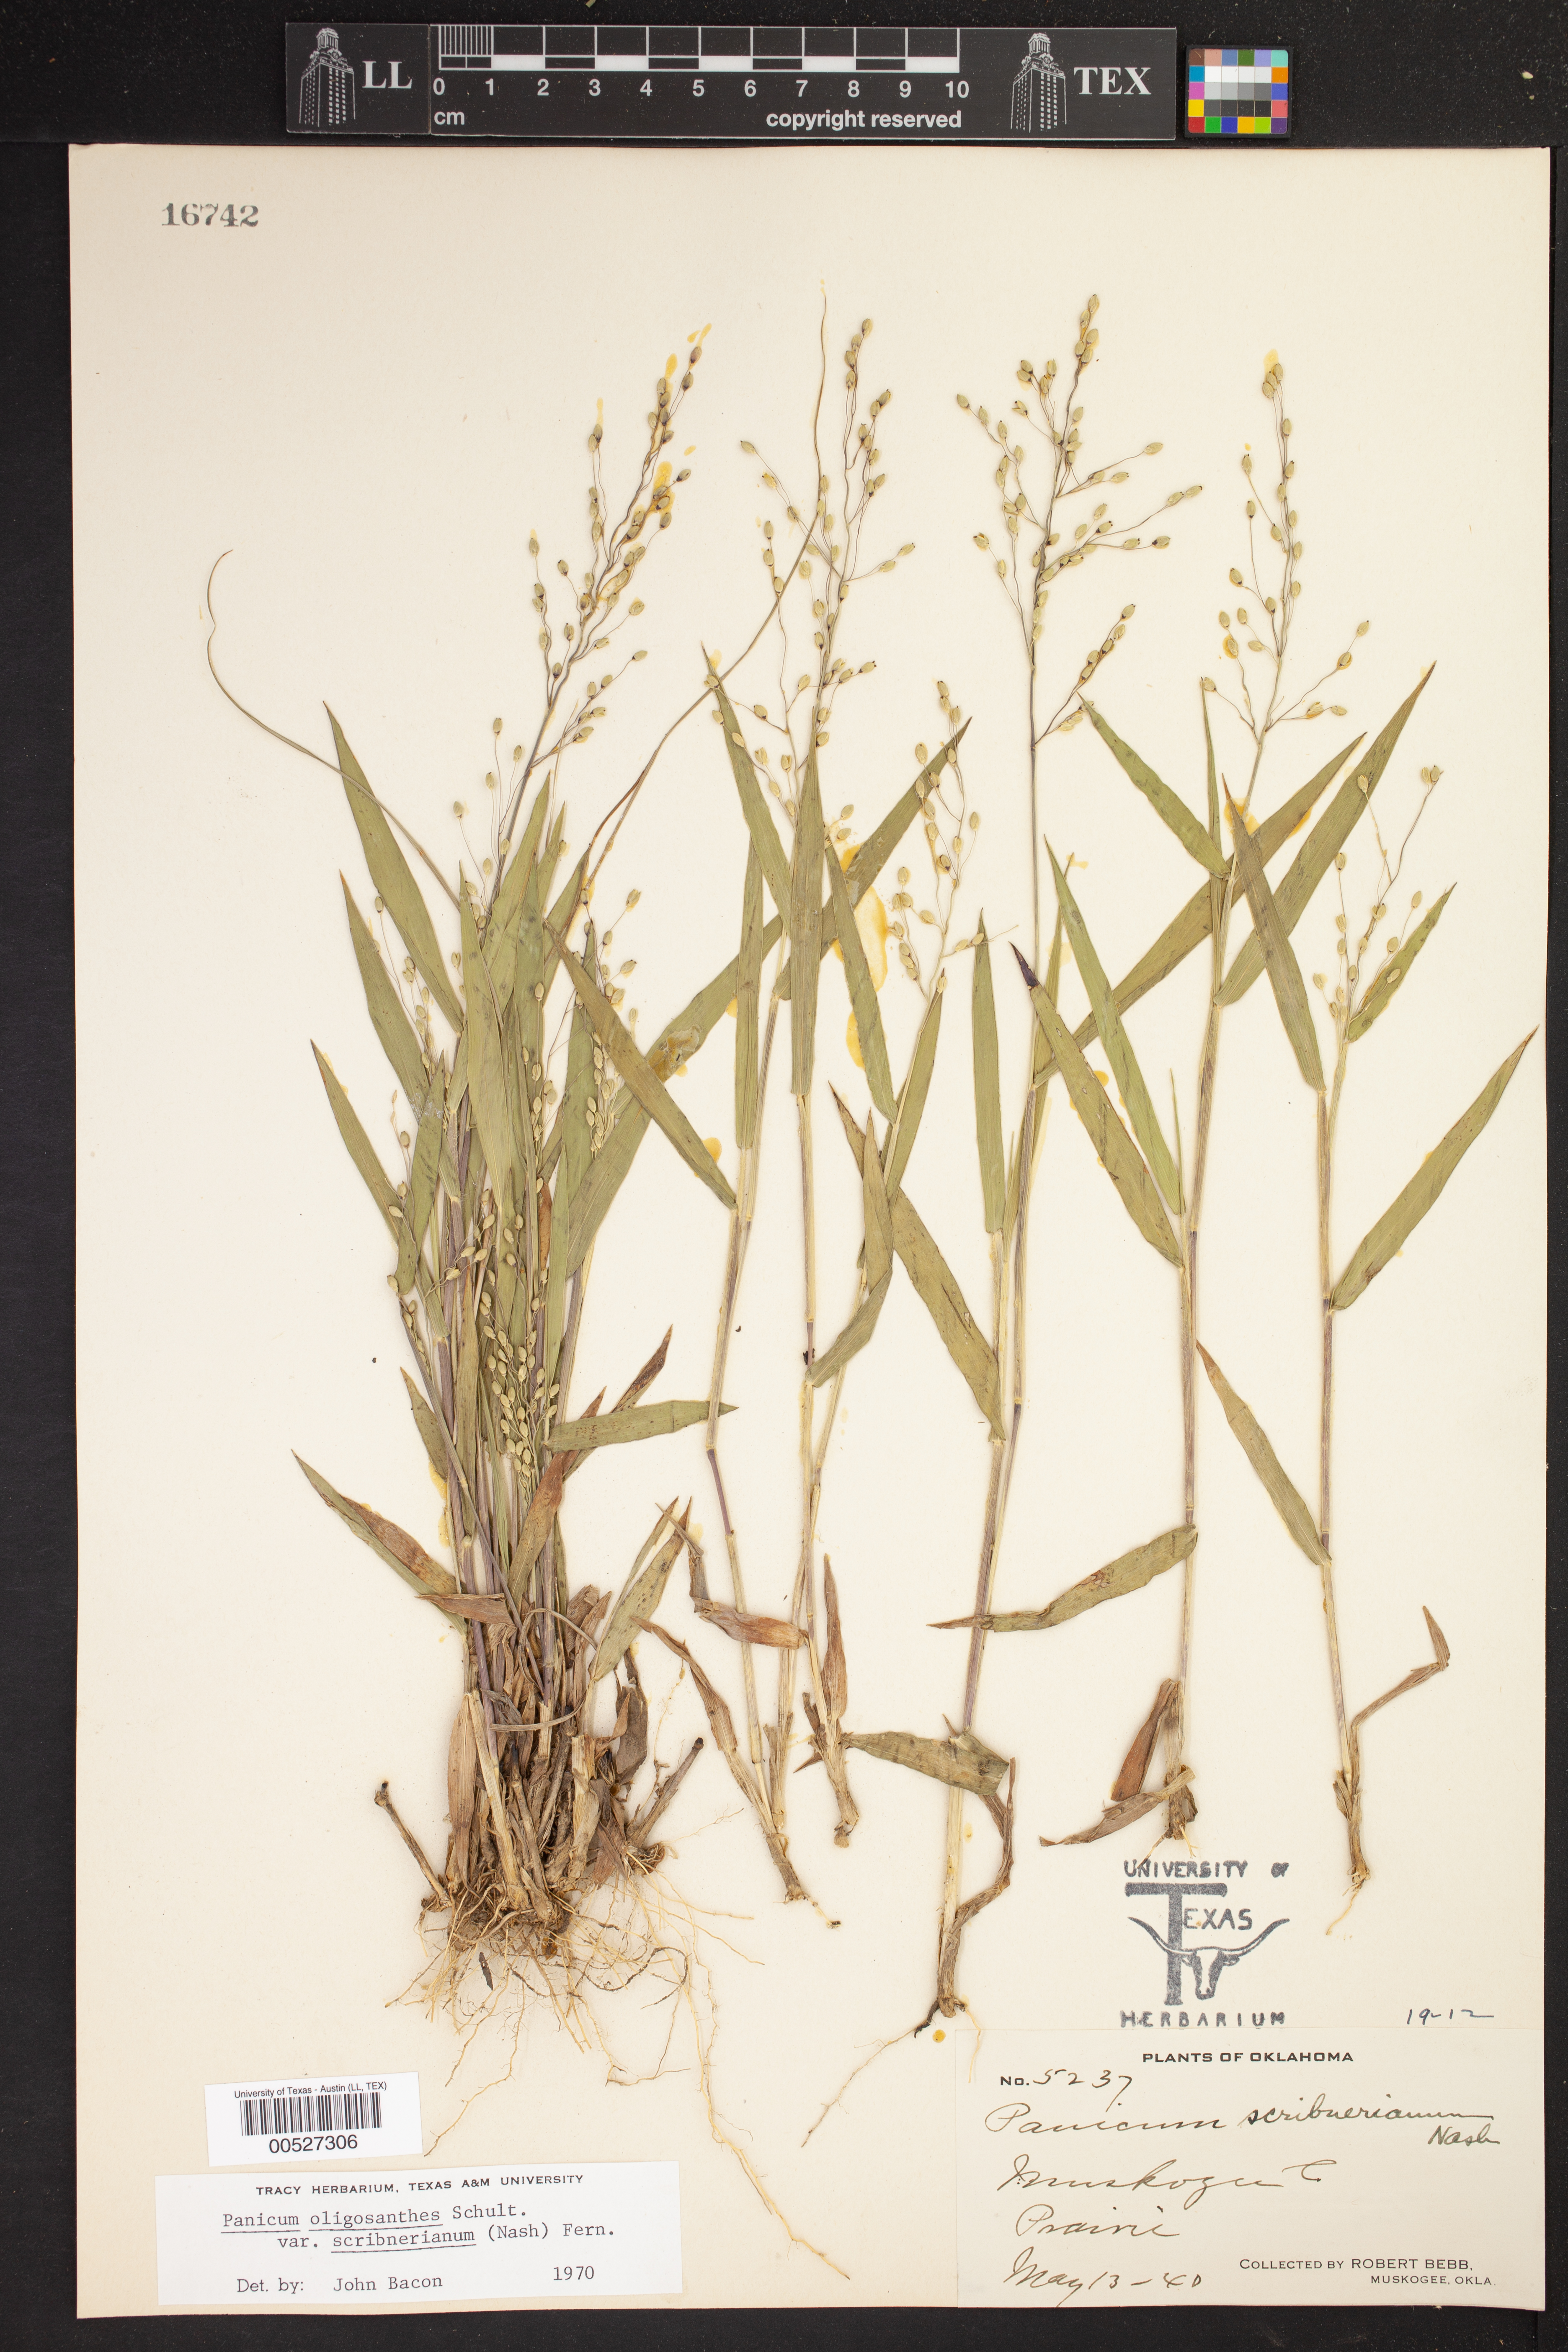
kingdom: Plantae
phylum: Tracheophyta
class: Liliopsida
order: Poales
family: Poaceae
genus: Dichanthelium
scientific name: Dichanthelium scribnerianum
